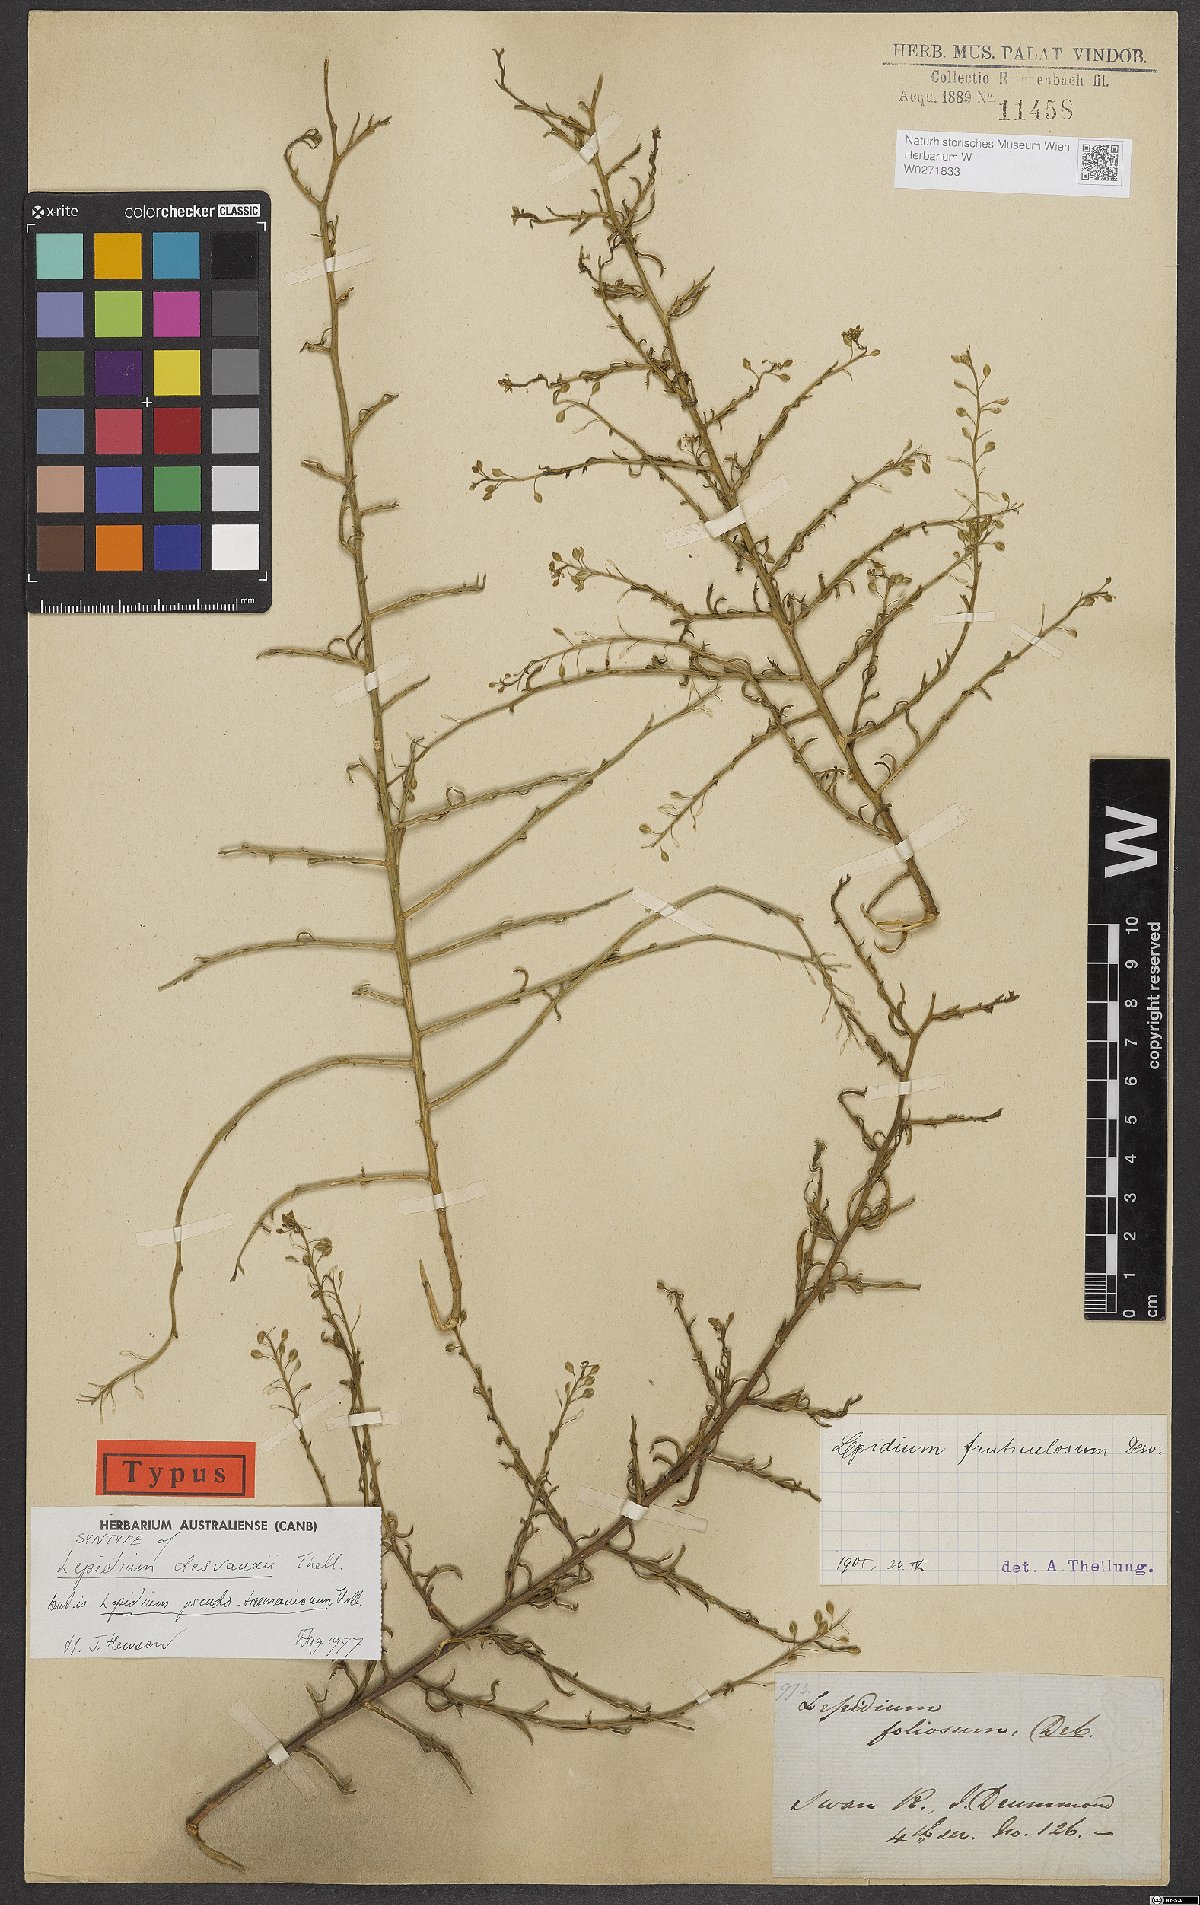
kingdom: Plantae
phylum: Tracheophyta
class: Magnoliopsida
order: Brassicales
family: Brassicaceae
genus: Lepidium
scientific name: Lepidium desvauxii
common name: Bushy pepperwort
